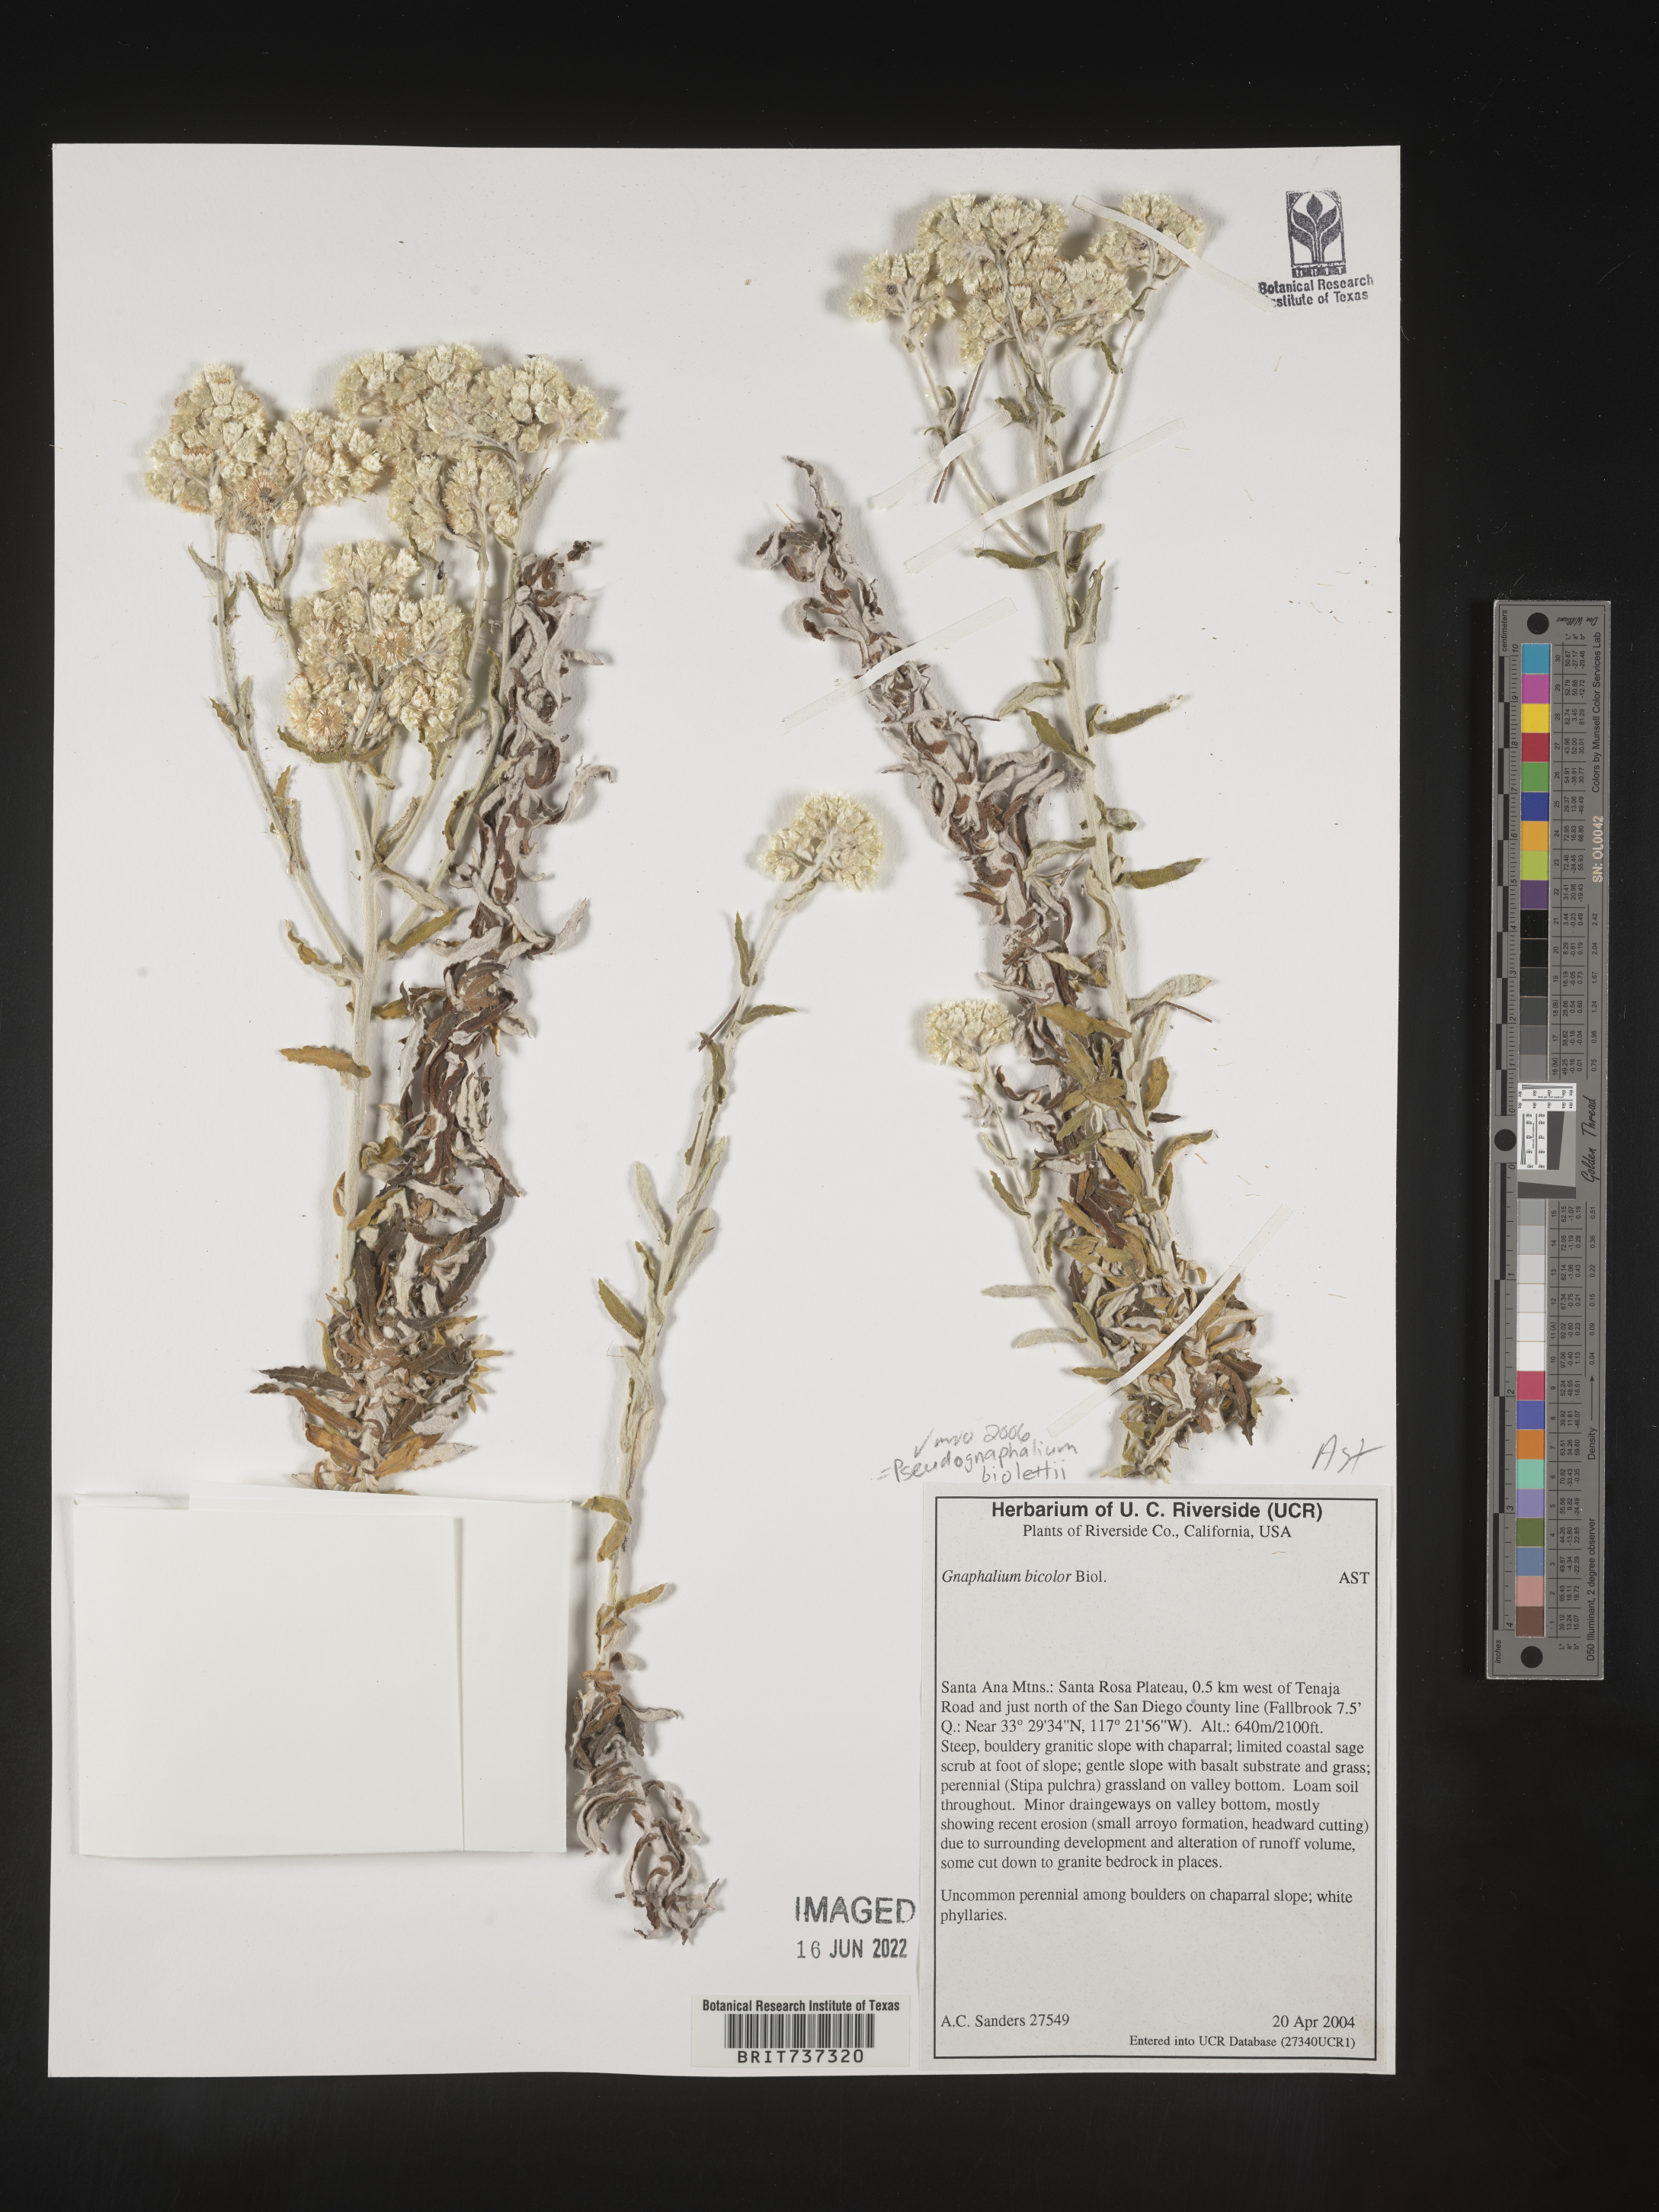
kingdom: Plantae
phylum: Tracheophyta
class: Magnoliopsida
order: Asterales
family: Asteraceae
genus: Pseudognaphalium
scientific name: Pseudognaphalium biolettii
